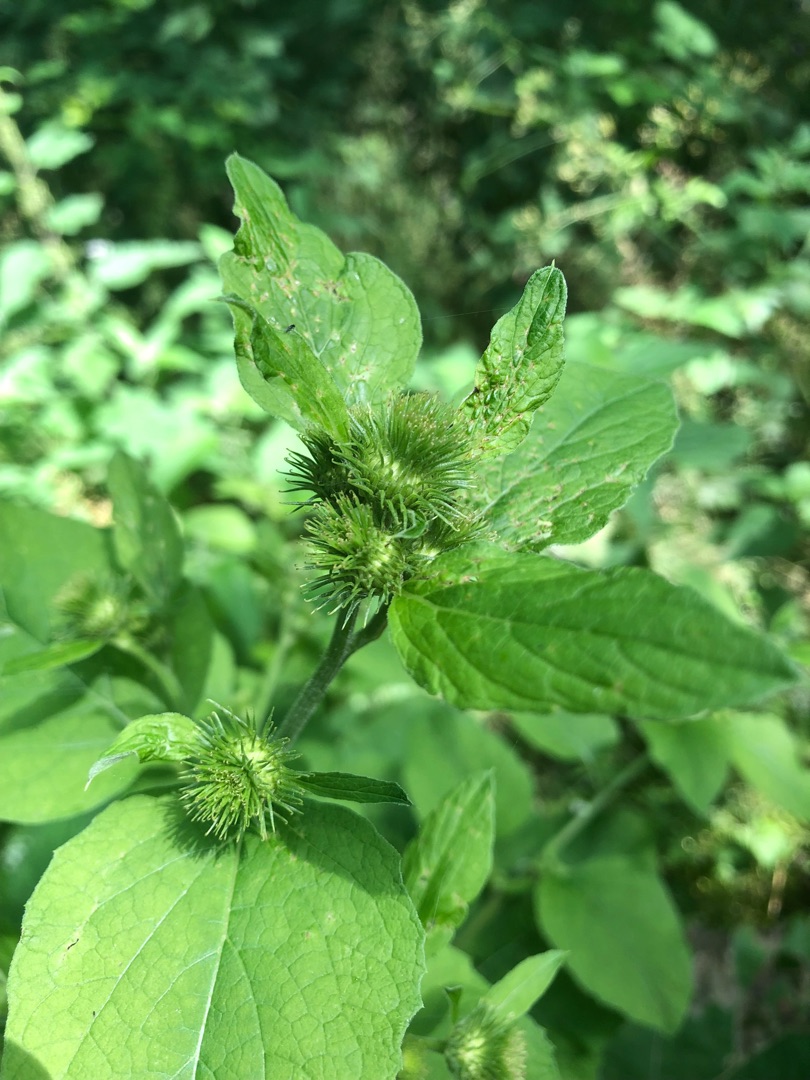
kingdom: Plantae
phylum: Tracheophyta
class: Magnoliopsida
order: Asterales
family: Asteraceae
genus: Arctium
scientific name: Arctium nemorosum
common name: Skov-burre
